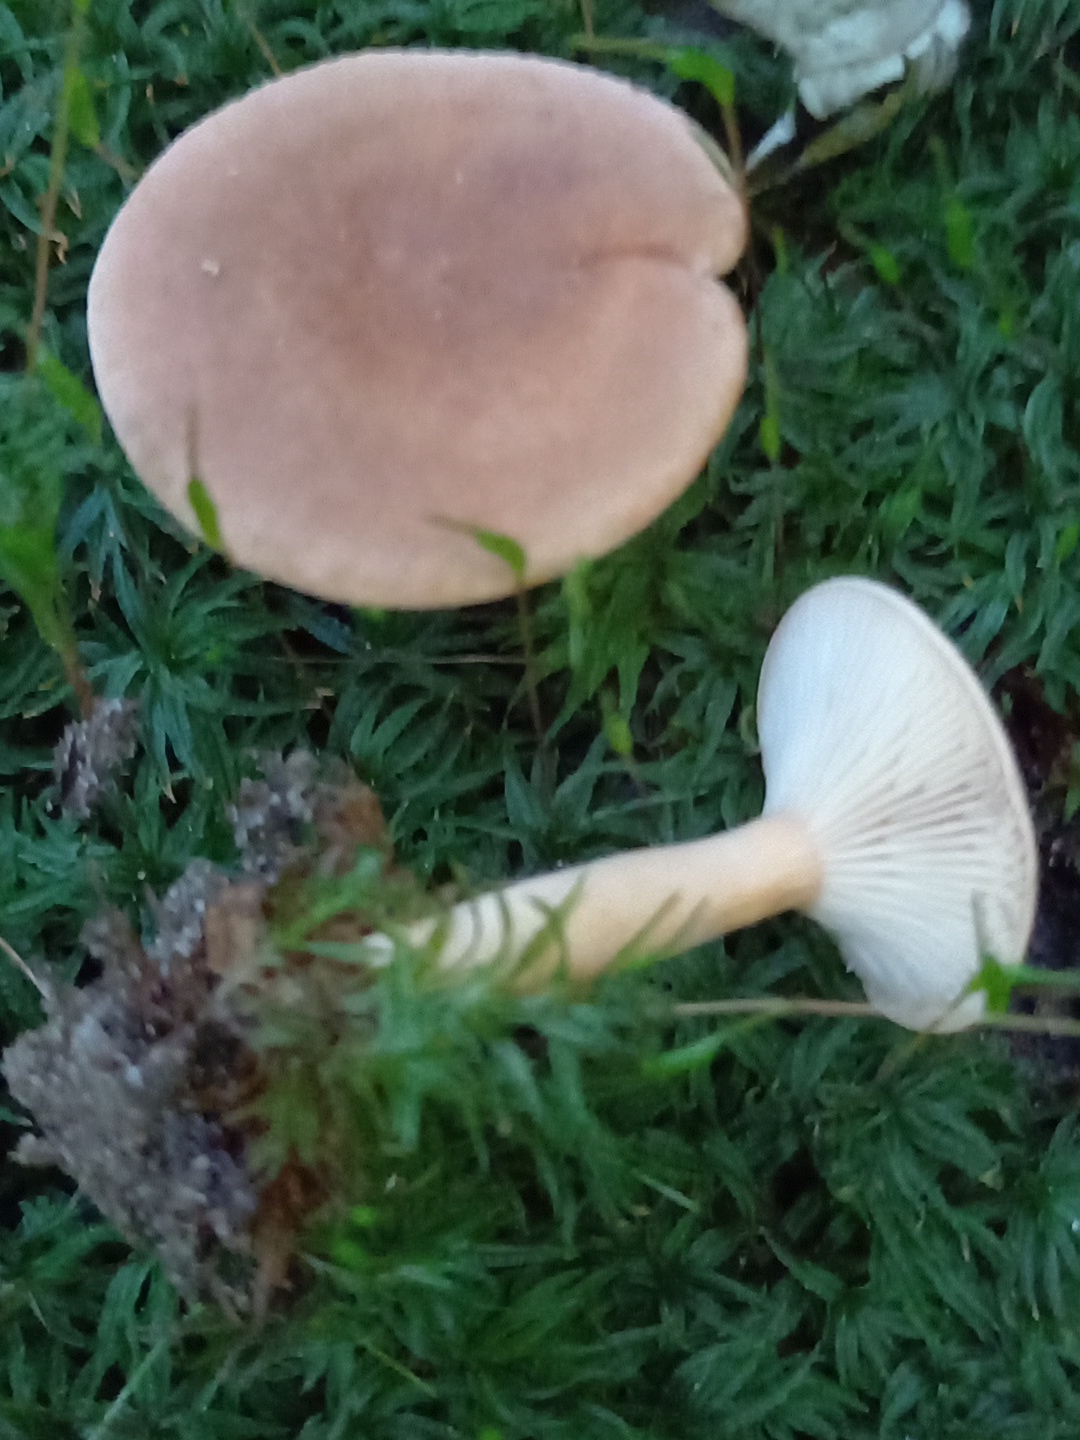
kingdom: Fungi
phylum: Basidiomycota
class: Agaricomycetes
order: Russulales
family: Russulaceae
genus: Lactarius
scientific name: Lactarius subdulcis
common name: sødlig mælkehat
